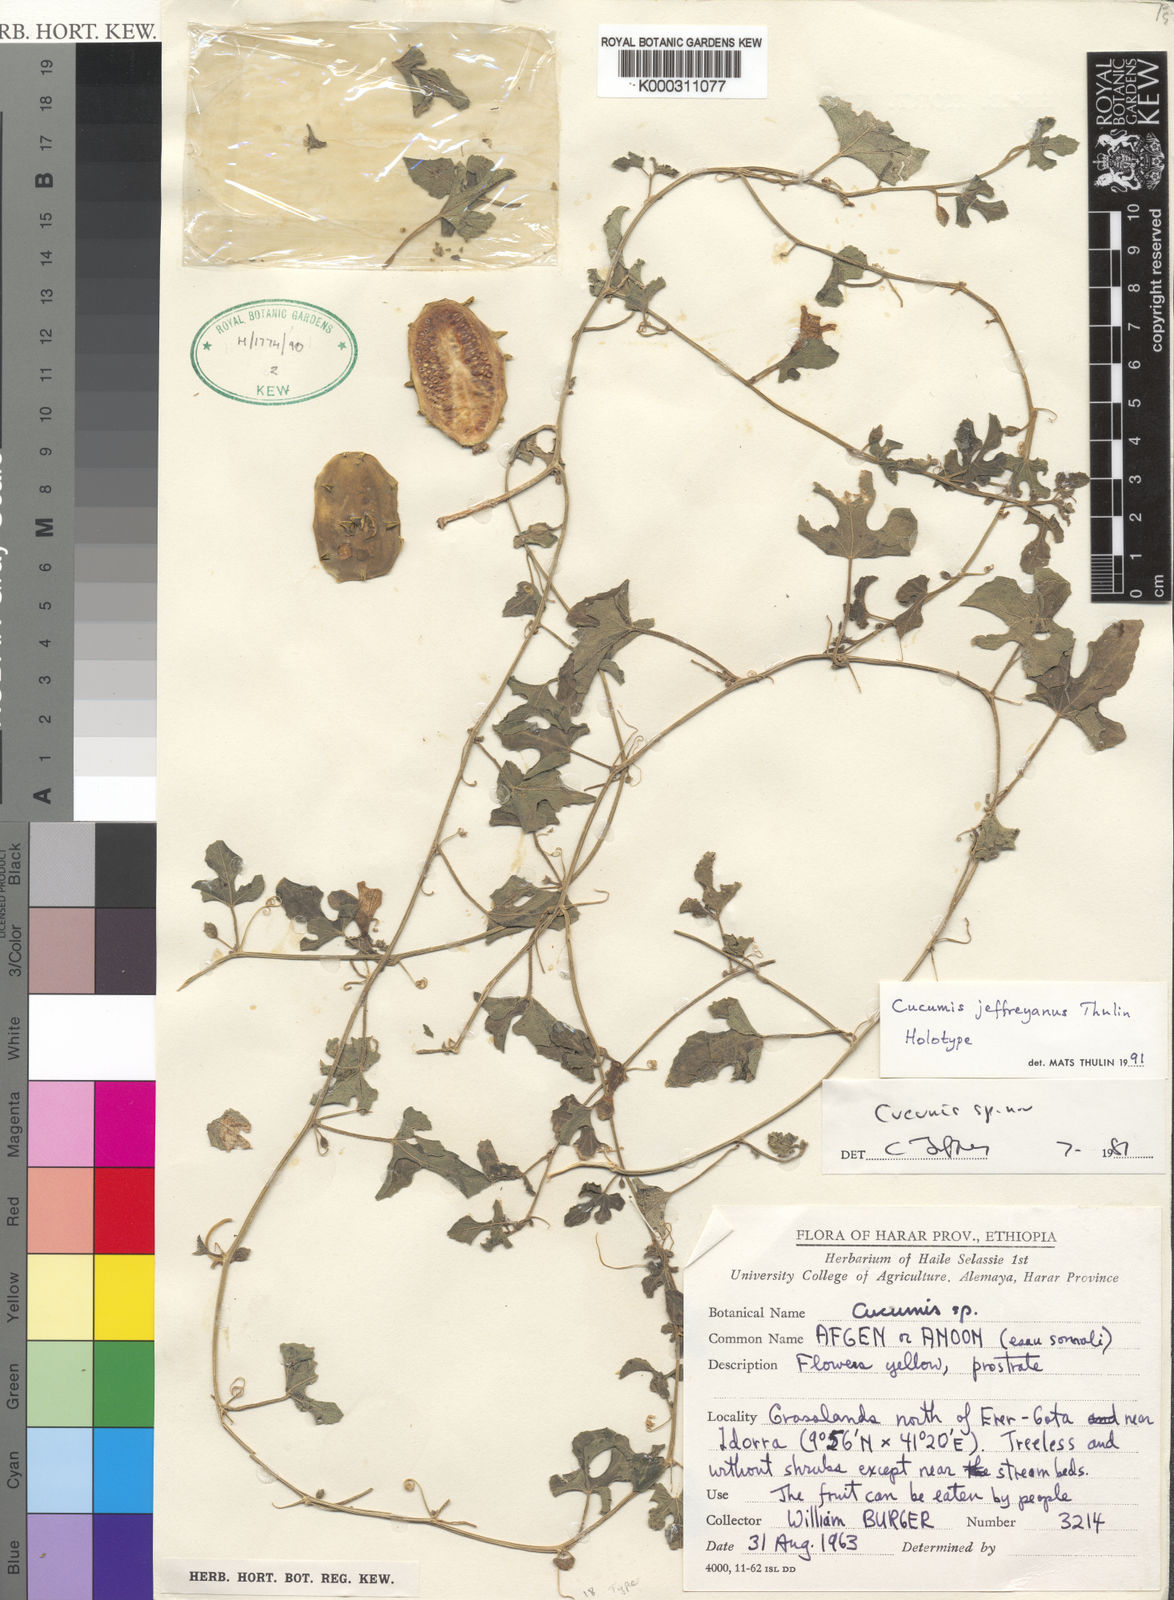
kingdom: Plantae
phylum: Tracheophyta
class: Magnoliopsida
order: Cucurbitales
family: Cucurbitaceae
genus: Cucumis
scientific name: Cucumis jeffreyanus
